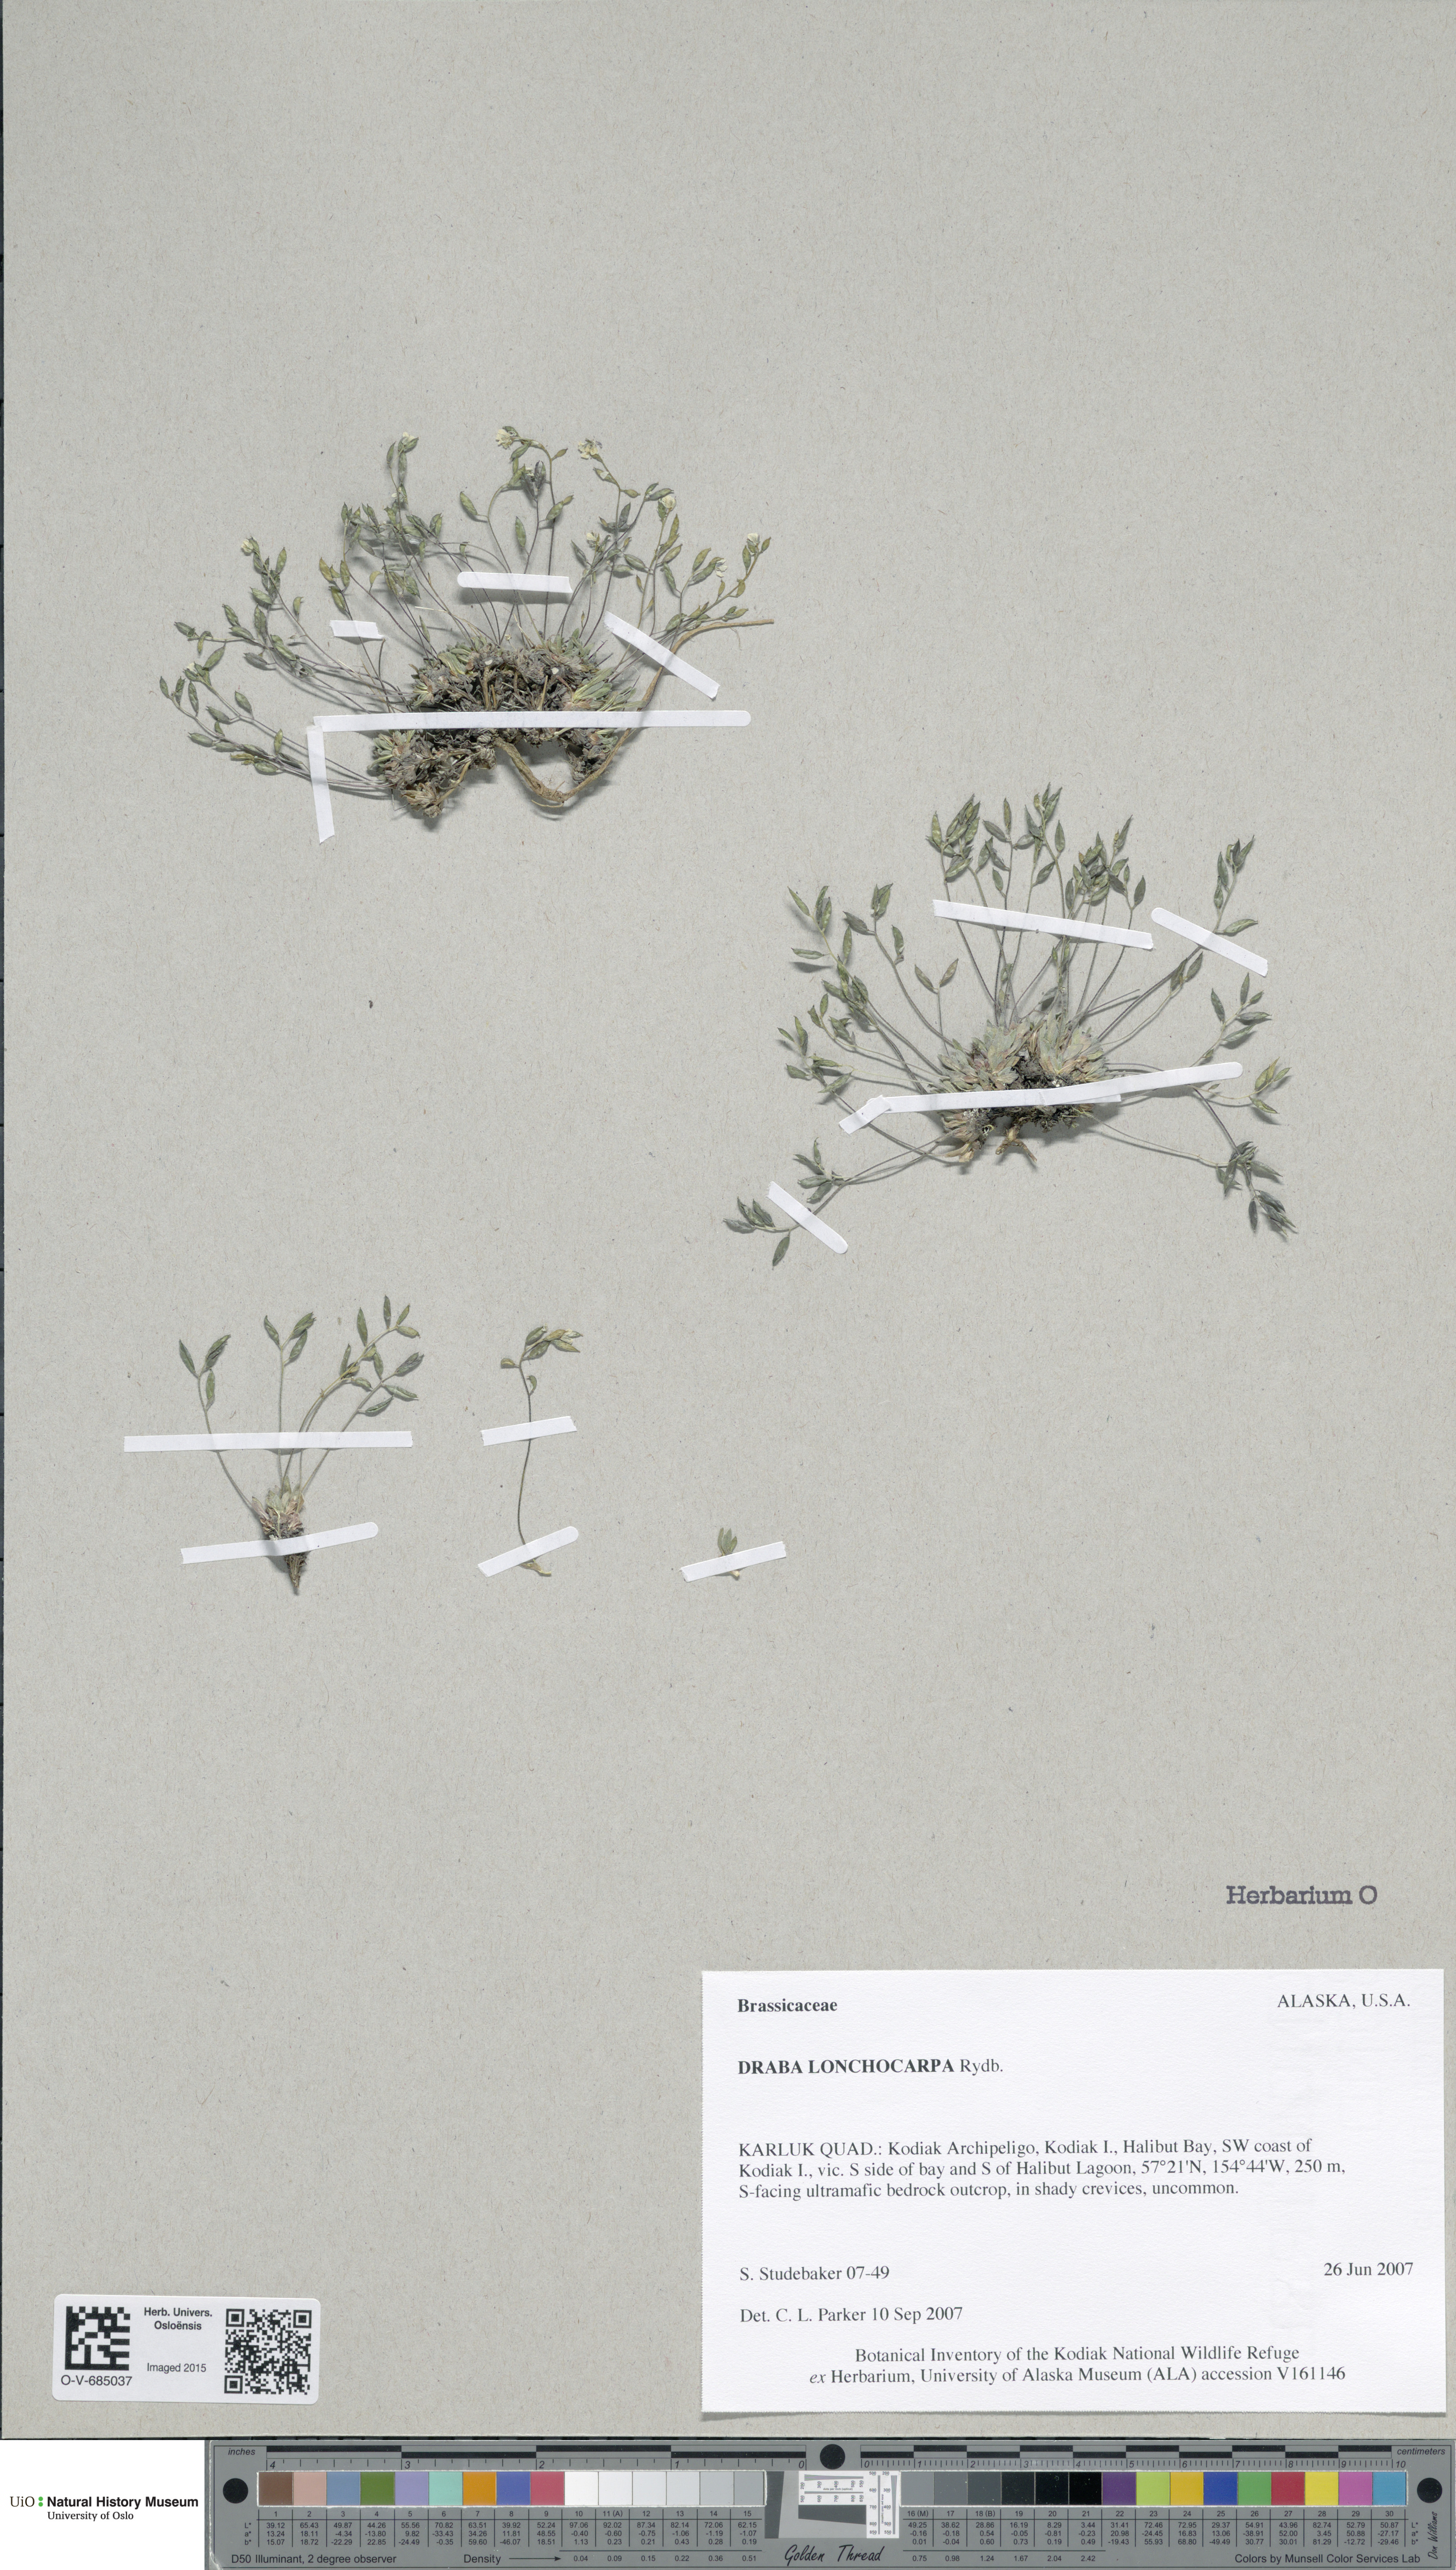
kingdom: Plantae
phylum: Tracheophyta
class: Magnoliopsida
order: Brassicales
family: Brassicaceae
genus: Draba
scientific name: Draba lonchocarpa
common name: Lance-fruit draba
